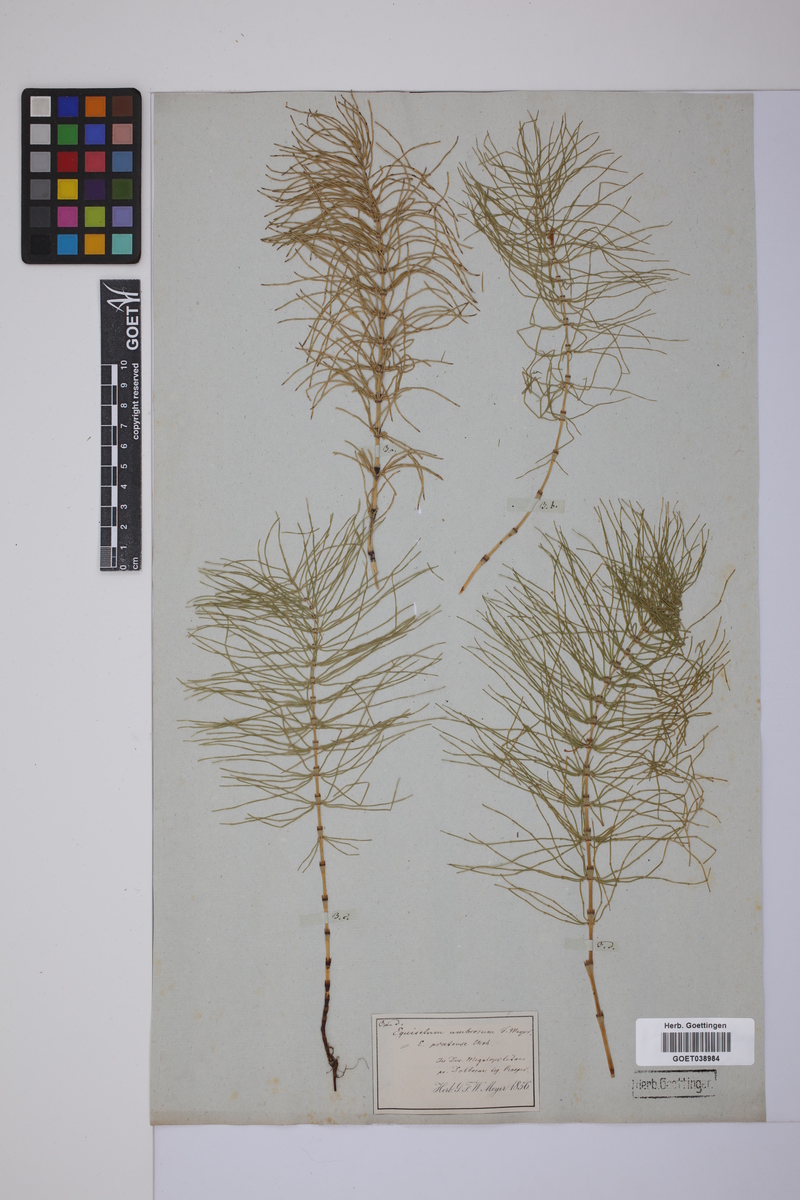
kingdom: Plantae
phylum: Tracheophyta
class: Polypodiopsida
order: Equisetales
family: Equisetaceae
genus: Equisetum
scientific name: Equisetum pratense
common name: Meadow horsetail
